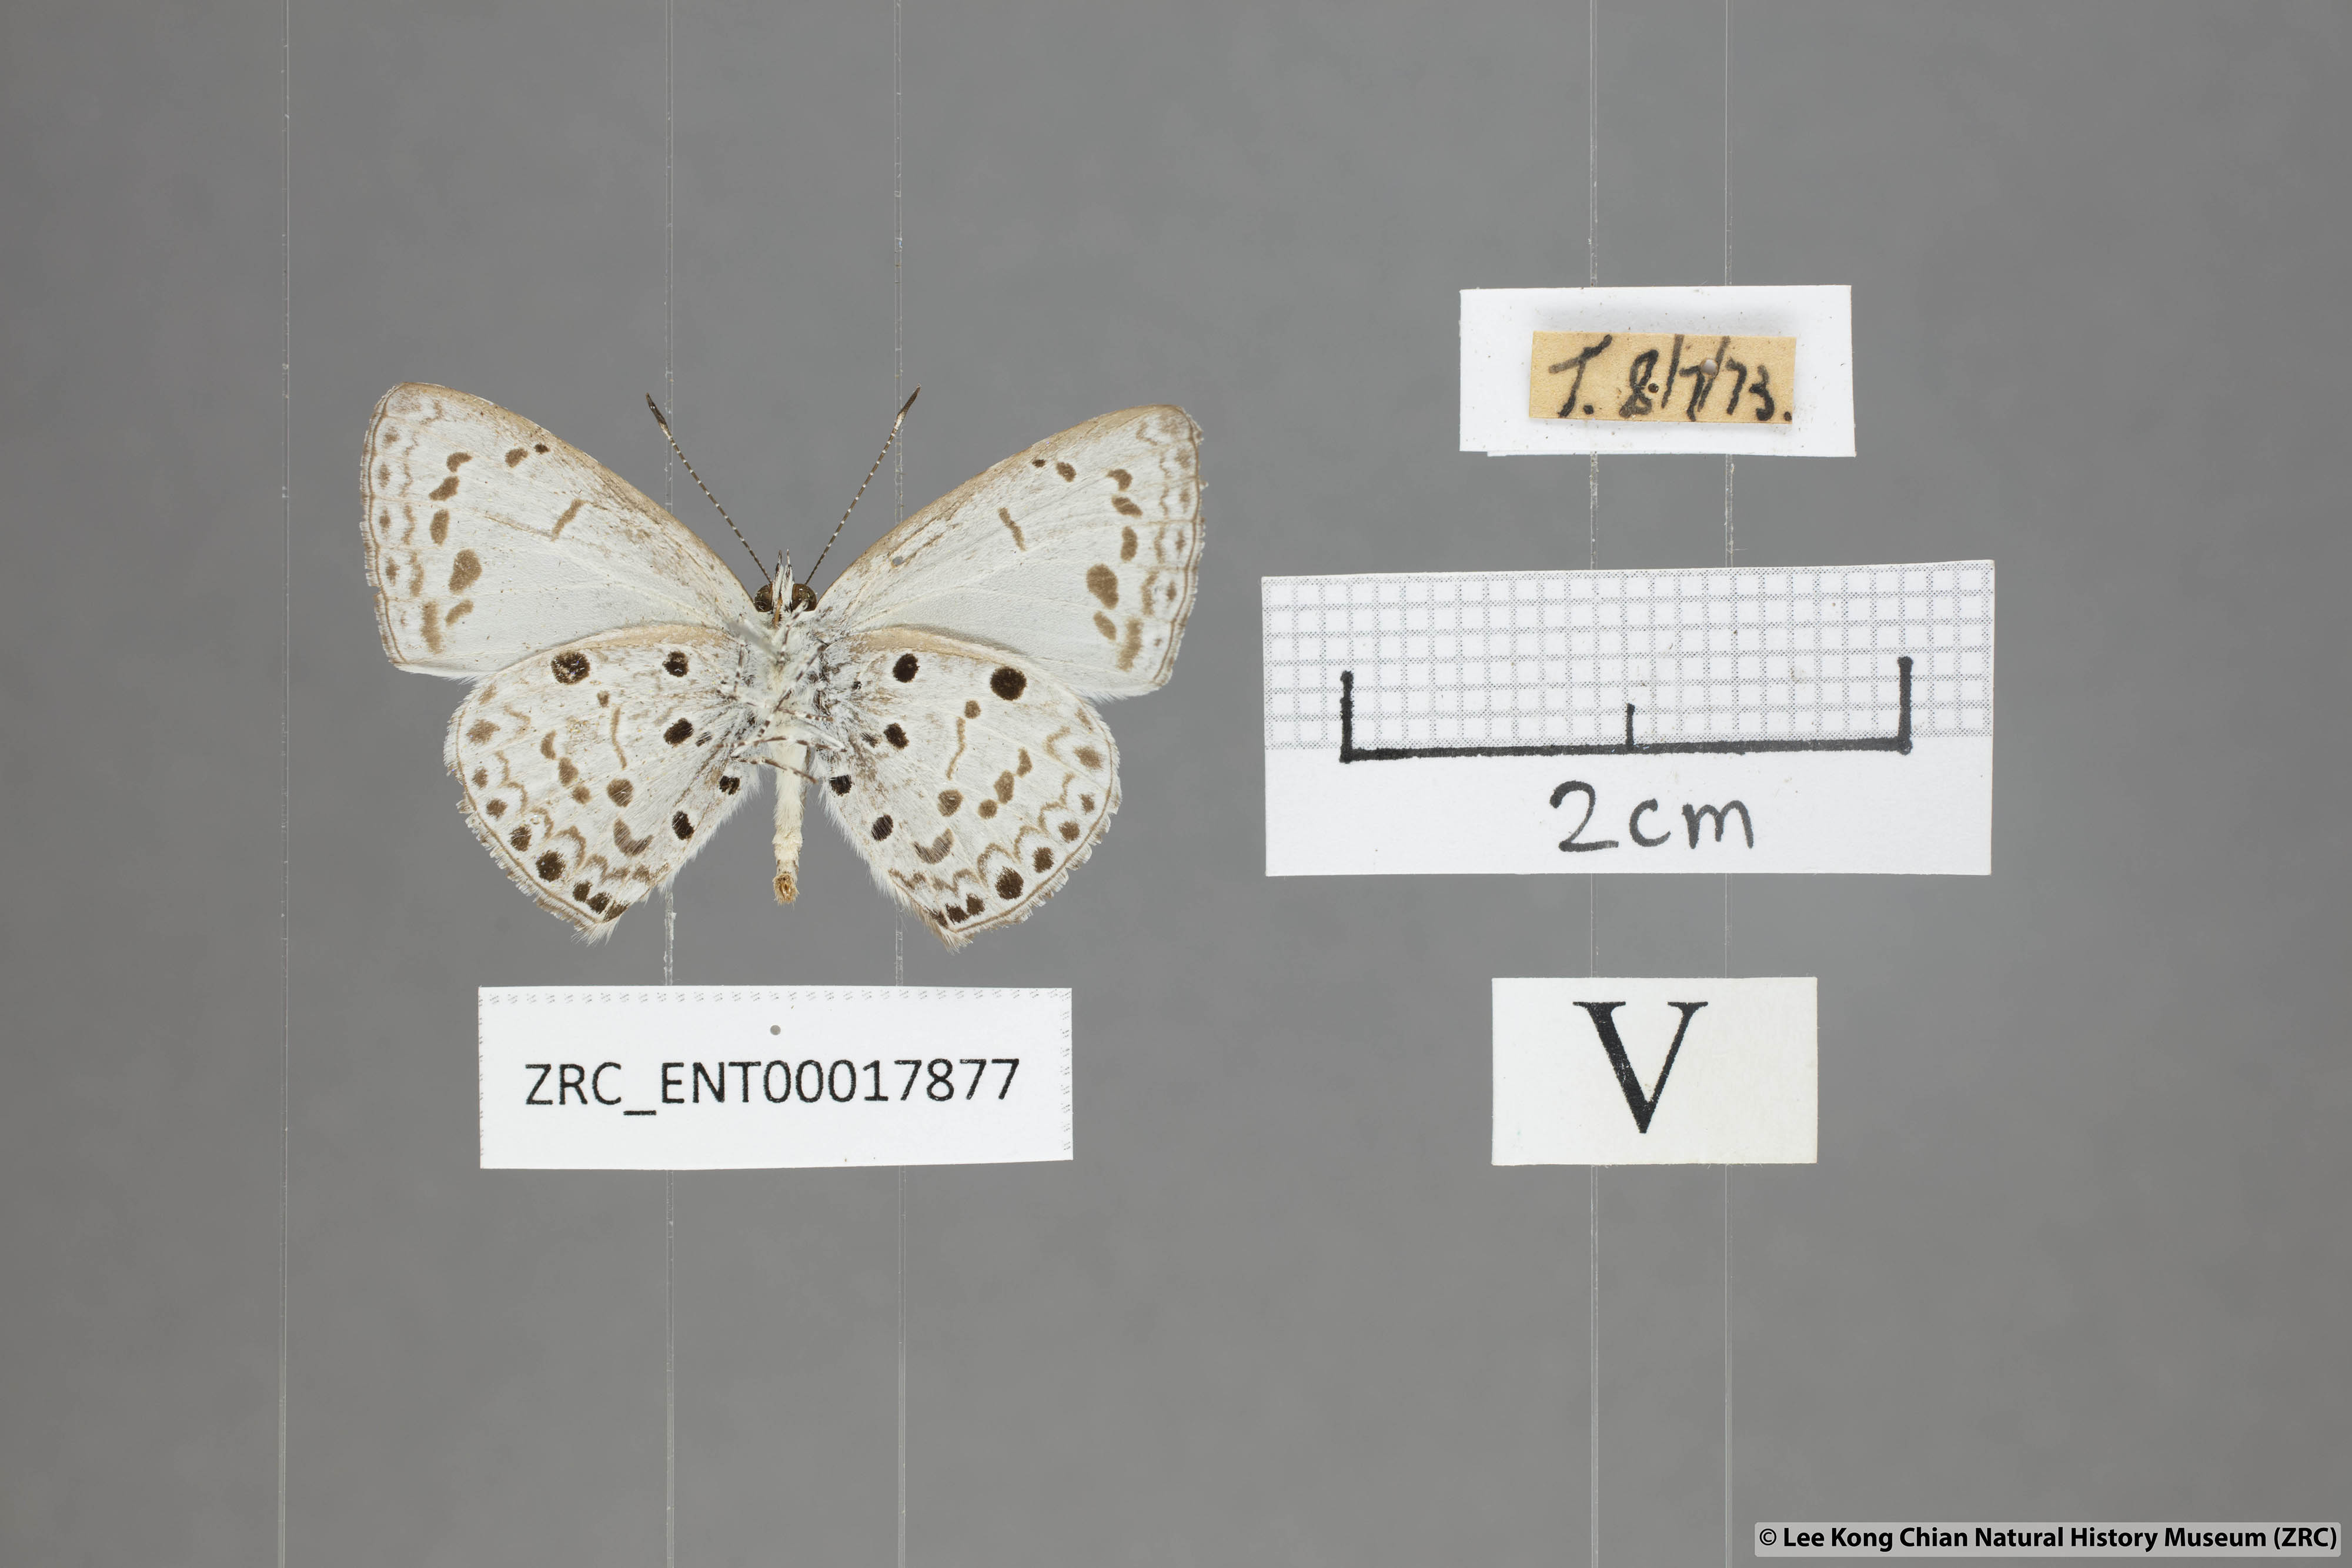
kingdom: Animalia
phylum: Arthropoda
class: Insecta
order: Lepidoptera
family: Lycaenidae
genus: Acytolepis
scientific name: Acytolepis puspa
